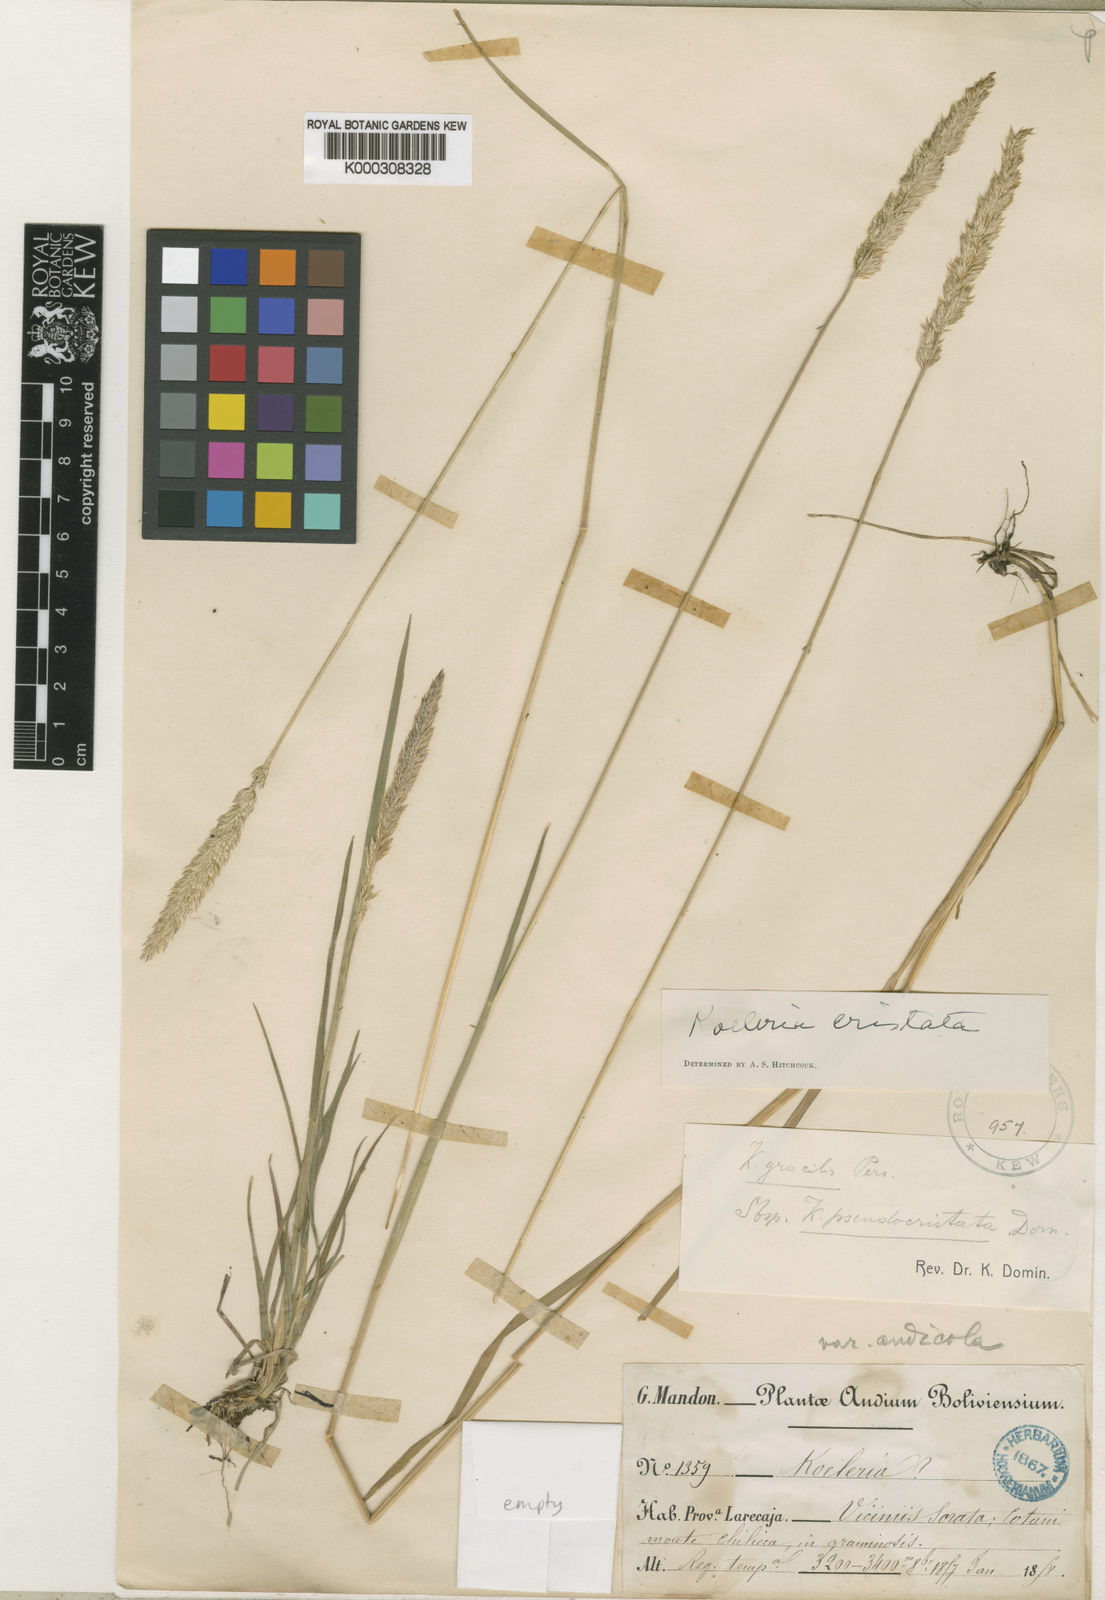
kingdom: Plantae
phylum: Tracheophyta
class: Liliopsida
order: Poales
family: Poaceae
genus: Koeleria
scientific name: Koeleria kurtzii
